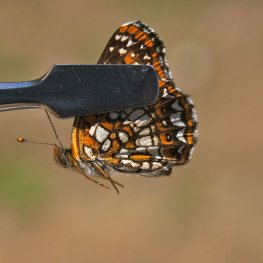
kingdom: Animalia
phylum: Arthropoda
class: Insecta
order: Lepidoptera
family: Nymphalidae
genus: Chlosyne
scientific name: Chlosyne harrisii
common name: Harris's Checkerspot
